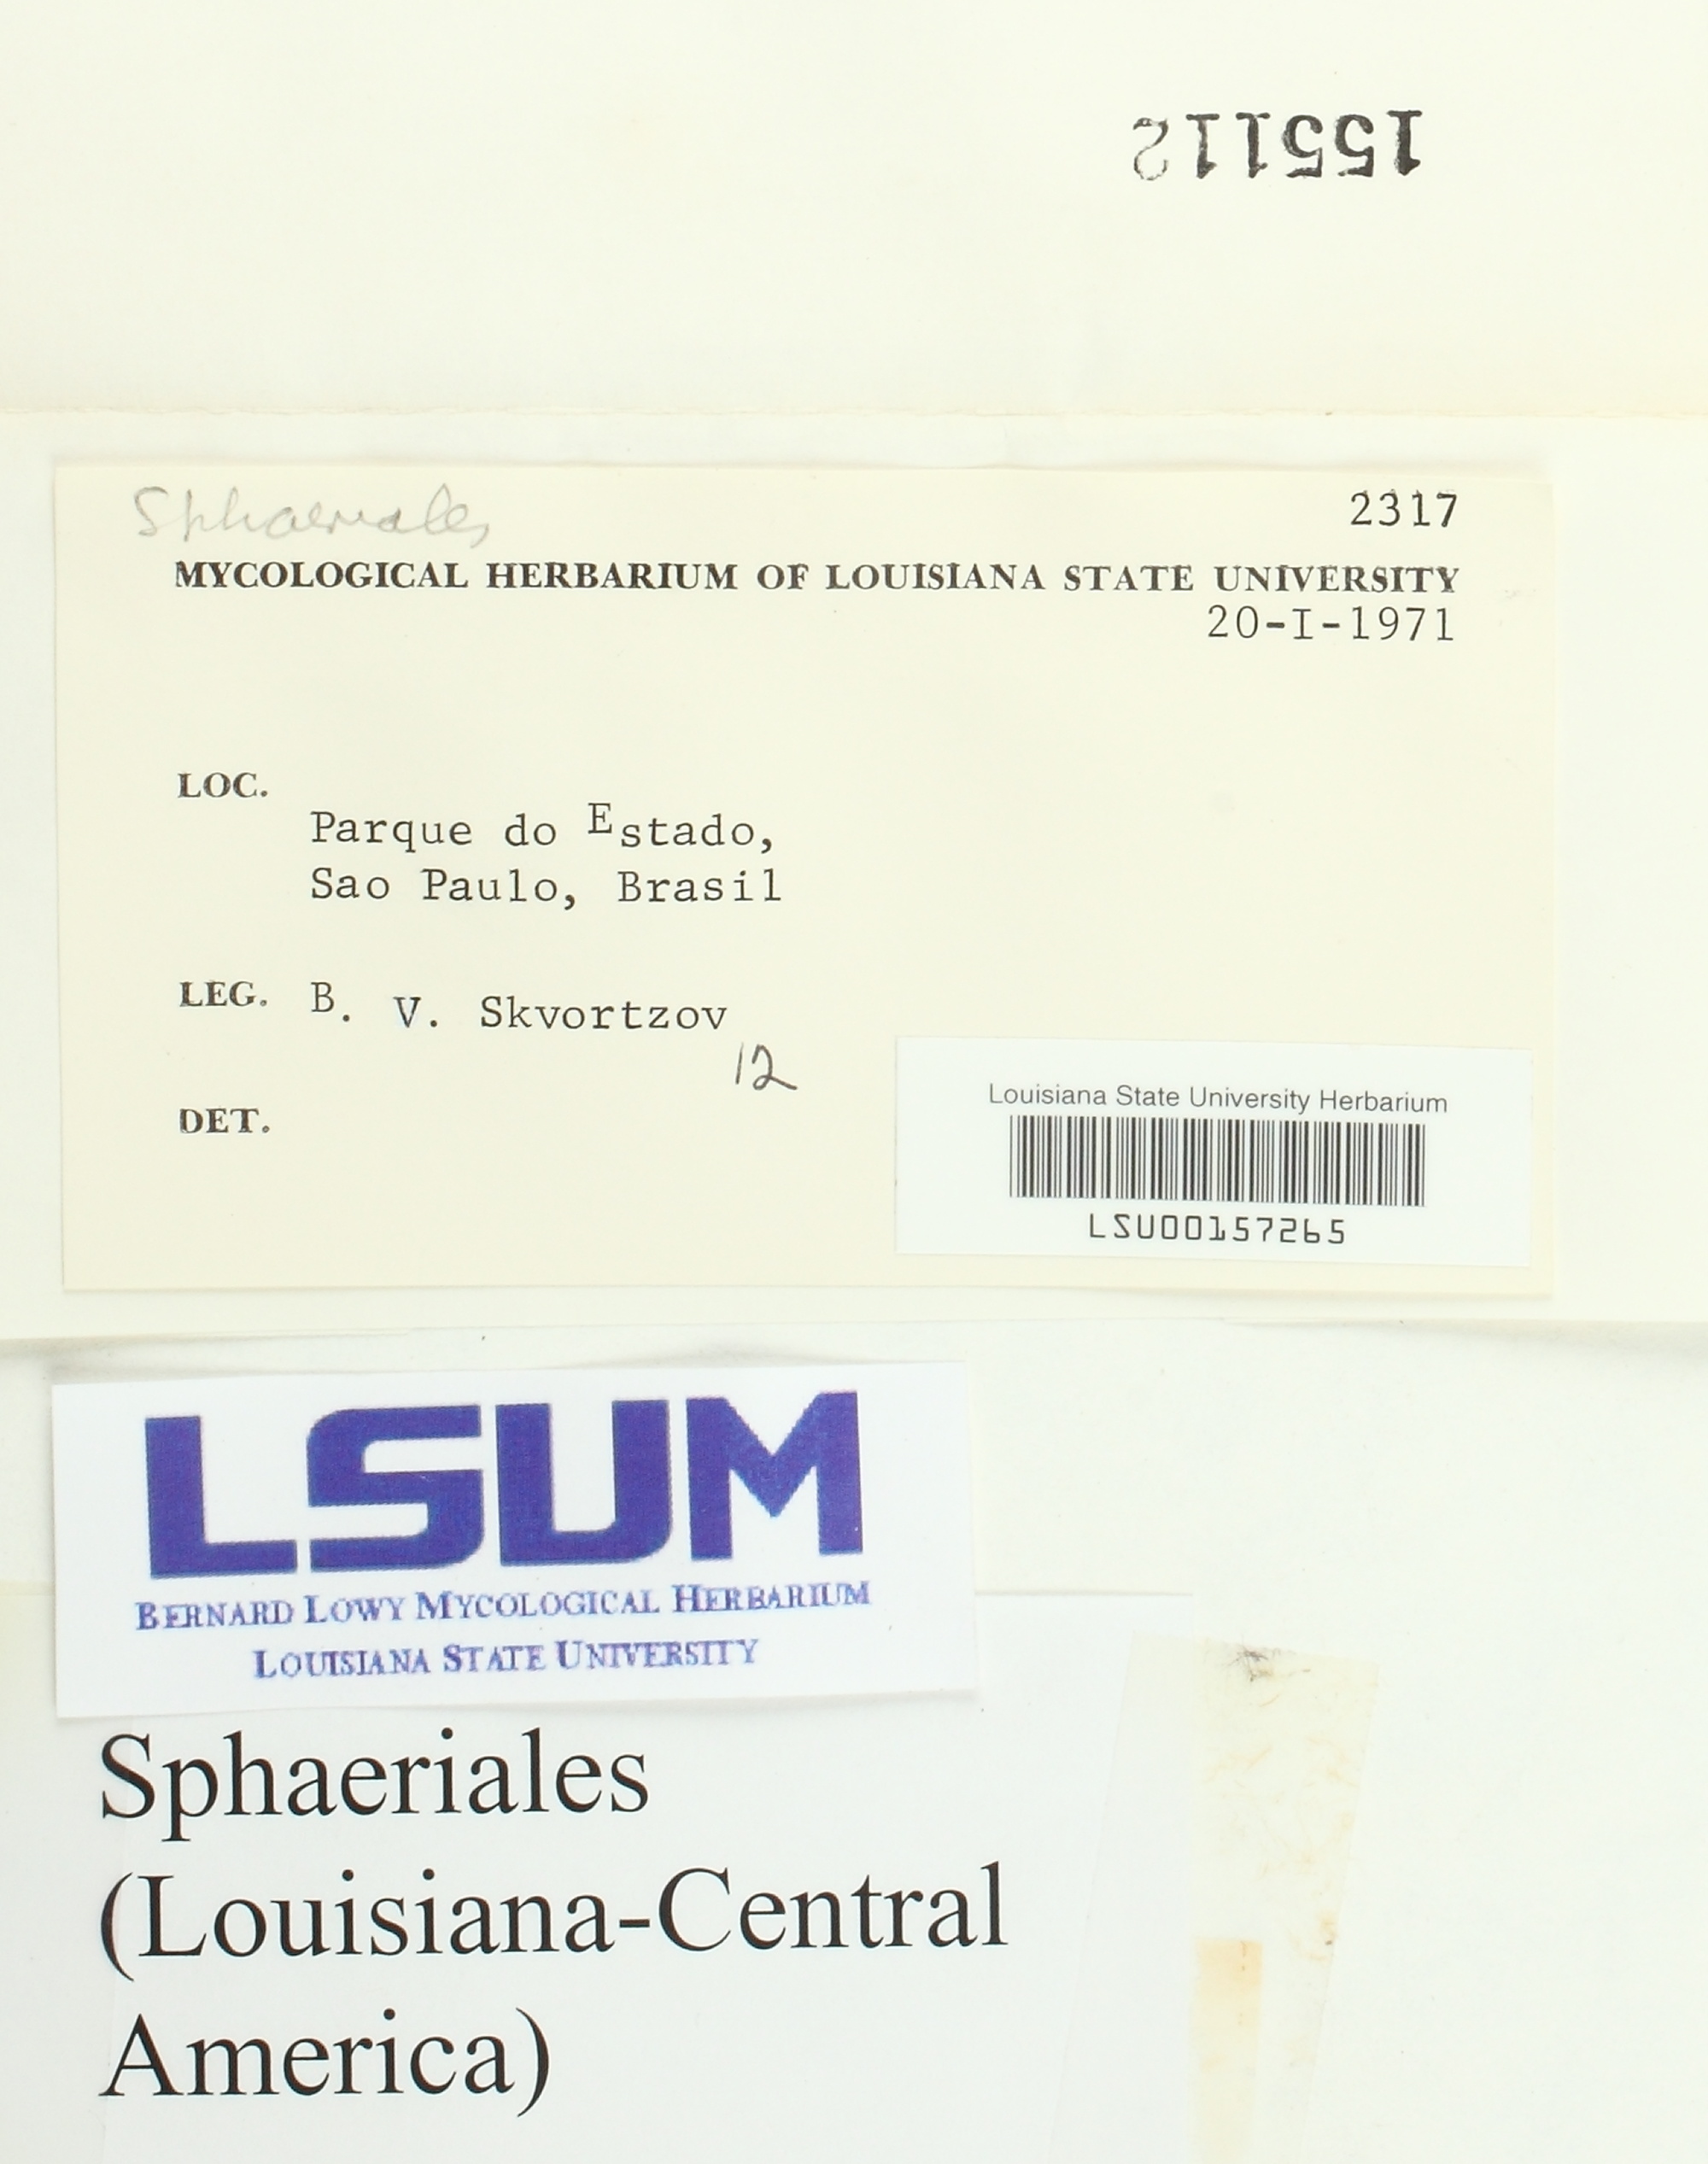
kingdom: Fungi
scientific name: Fungi
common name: Fungi
